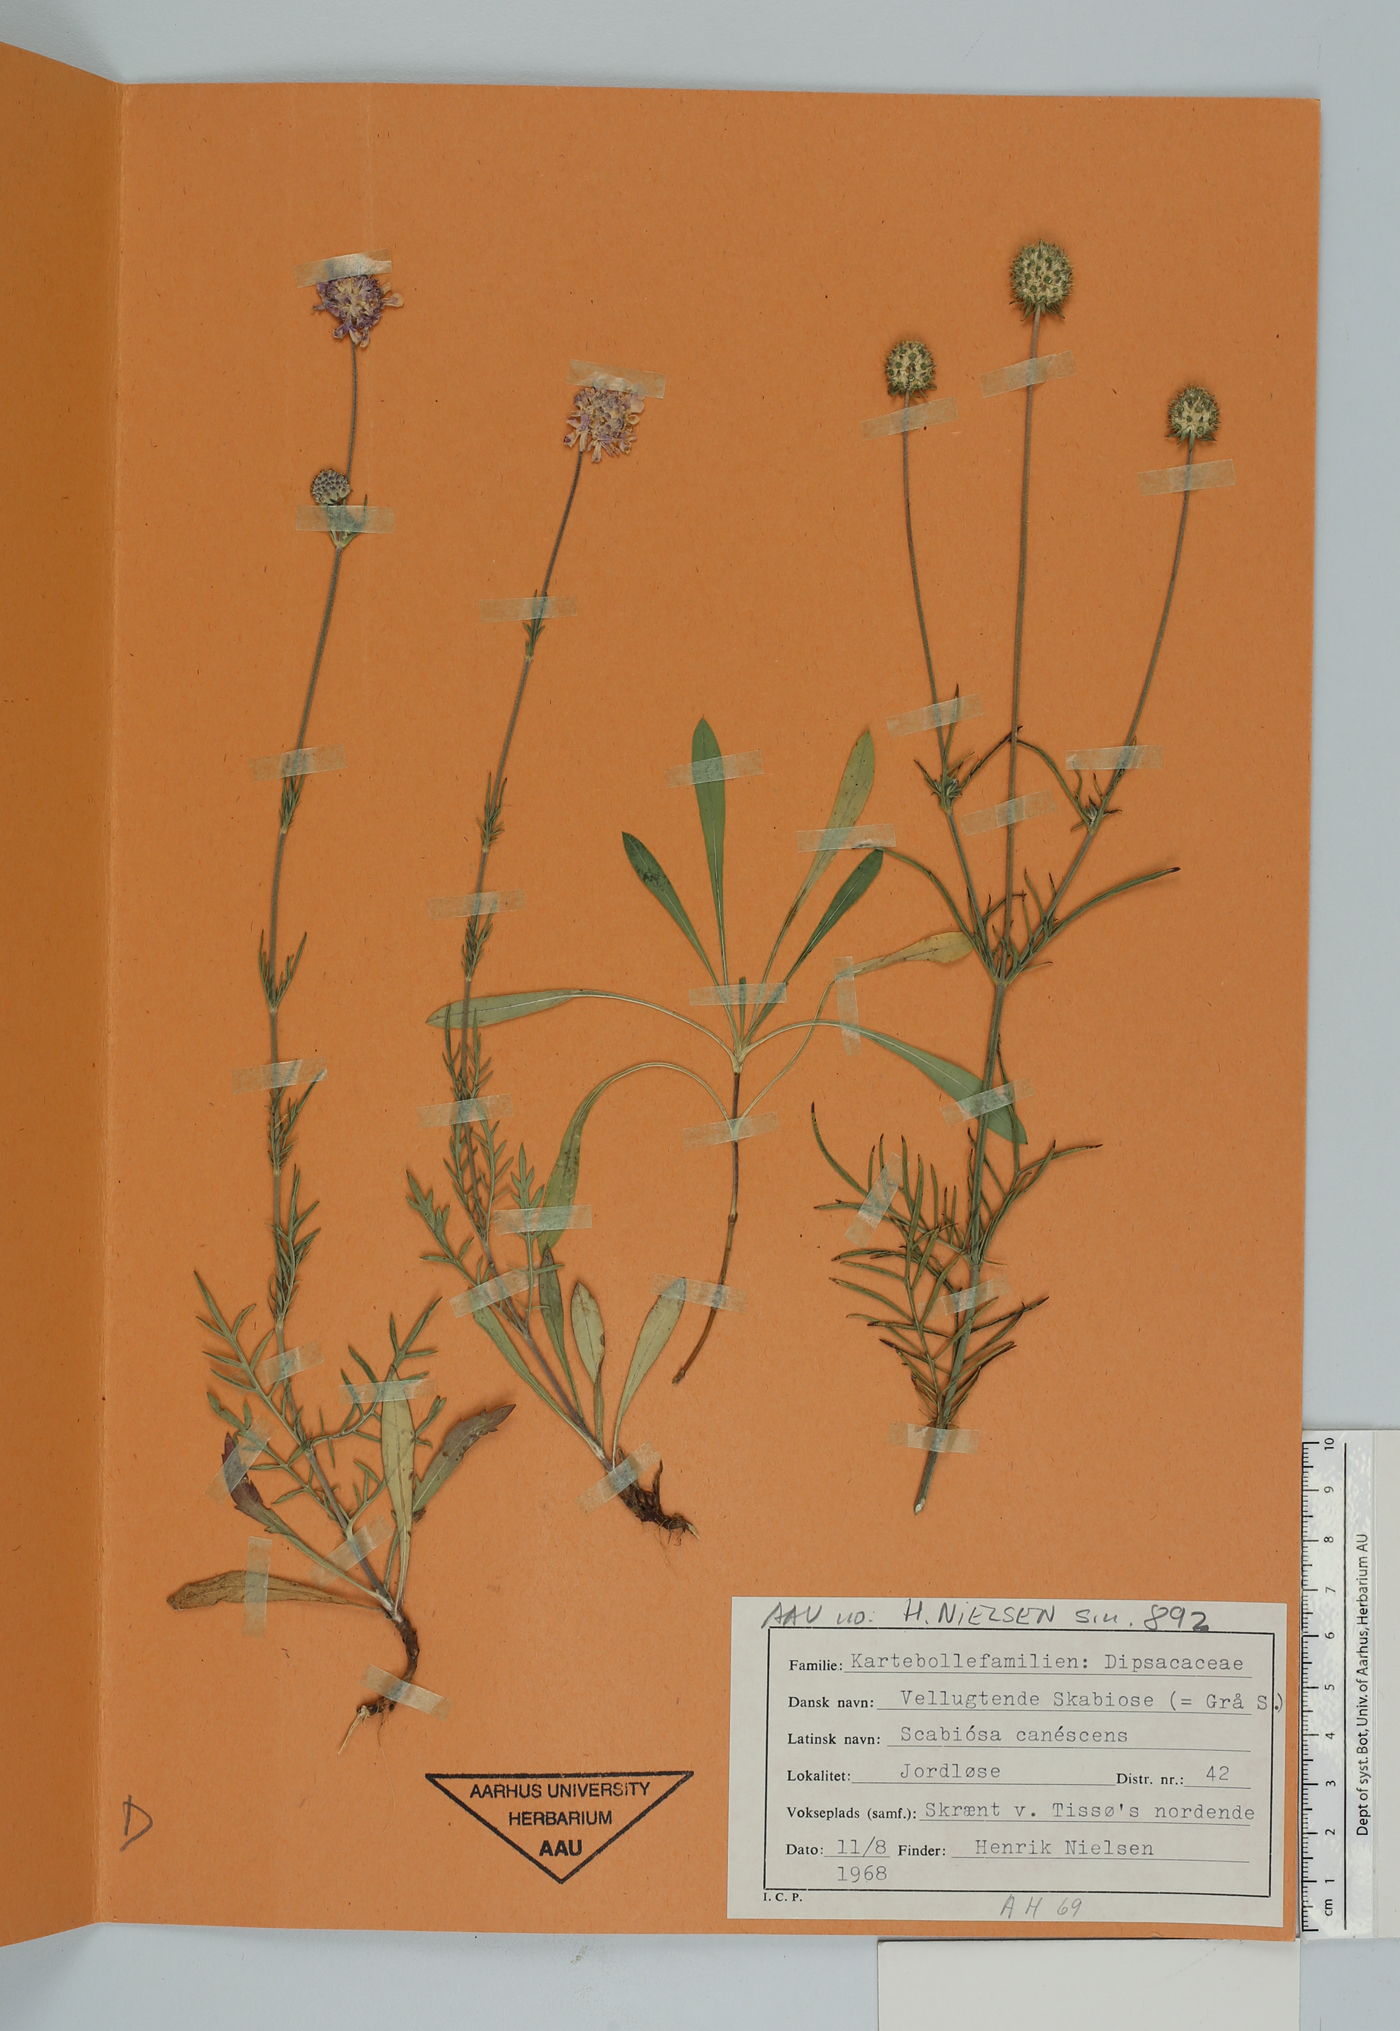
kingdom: Plantae
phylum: Tracheophyta
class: Magnoliopsida
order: Dipsacales
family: Caprifoliaceae
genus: Scabiosa
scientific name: Scabiosa canescens
